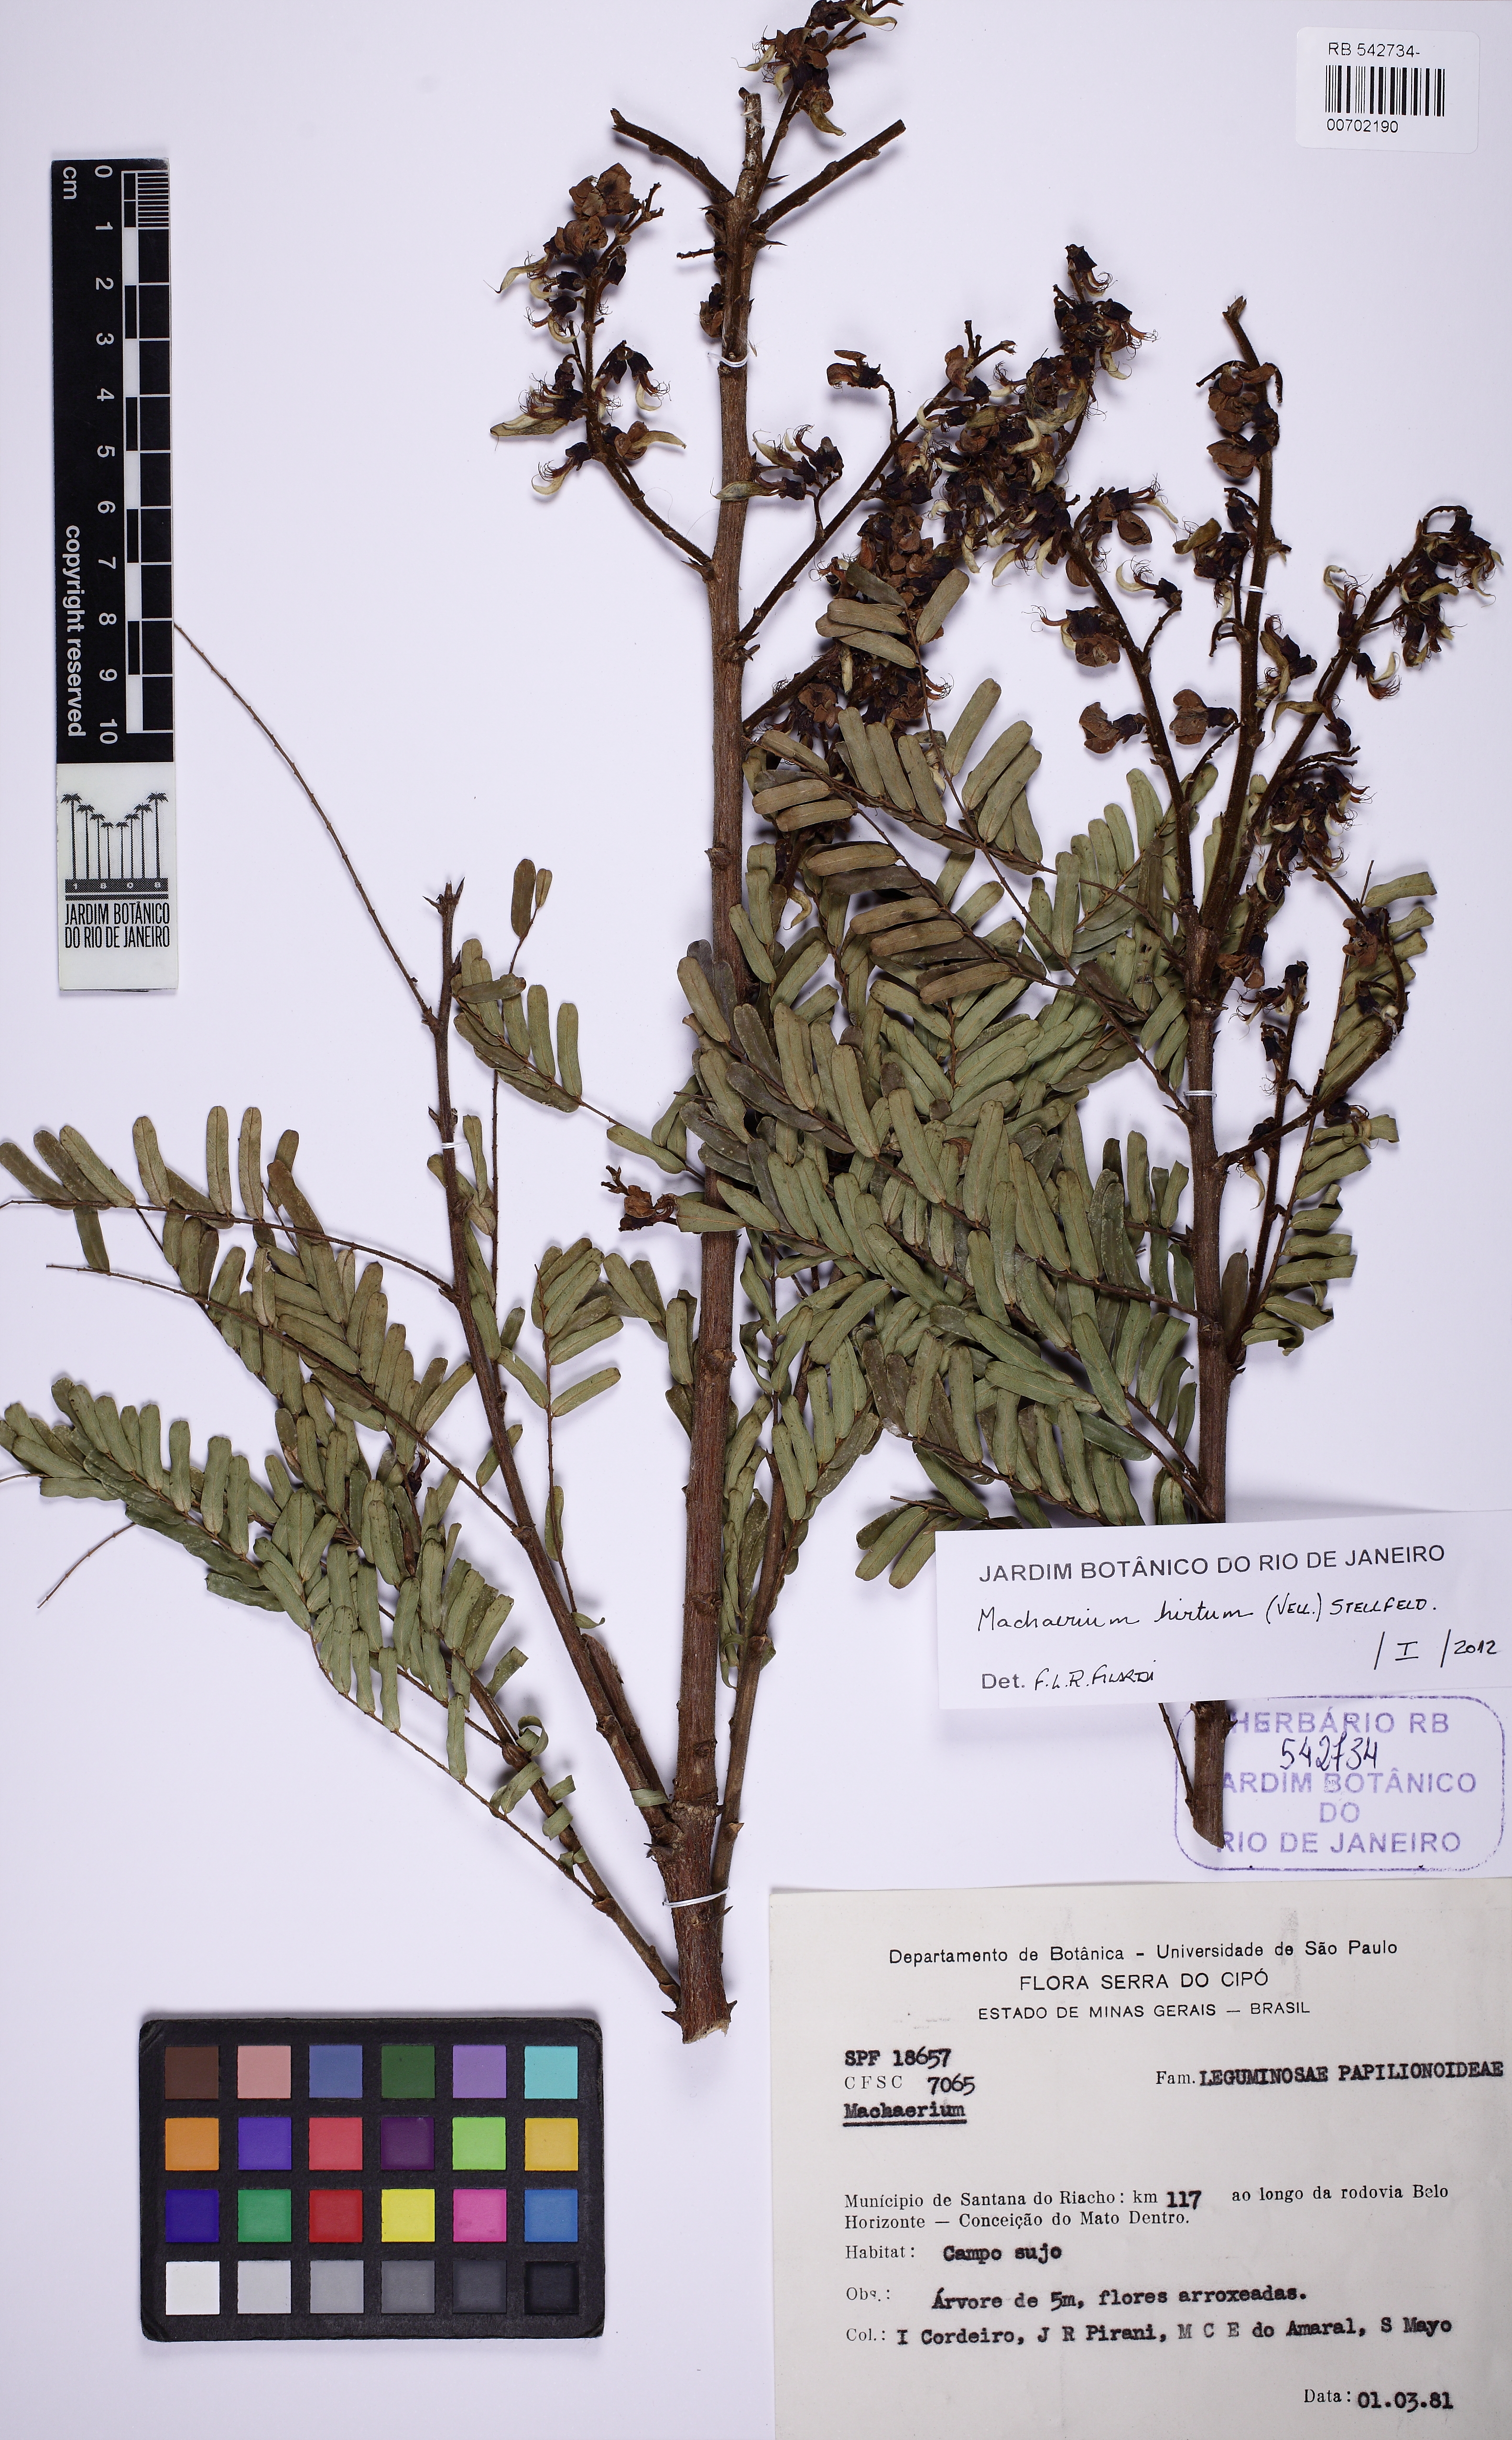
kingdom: Plantae
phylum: Tracheophyta
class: Magnoliopsida
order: Fabales
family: Fabaceae
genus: Machaerium
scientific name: Machaerium hirtum
